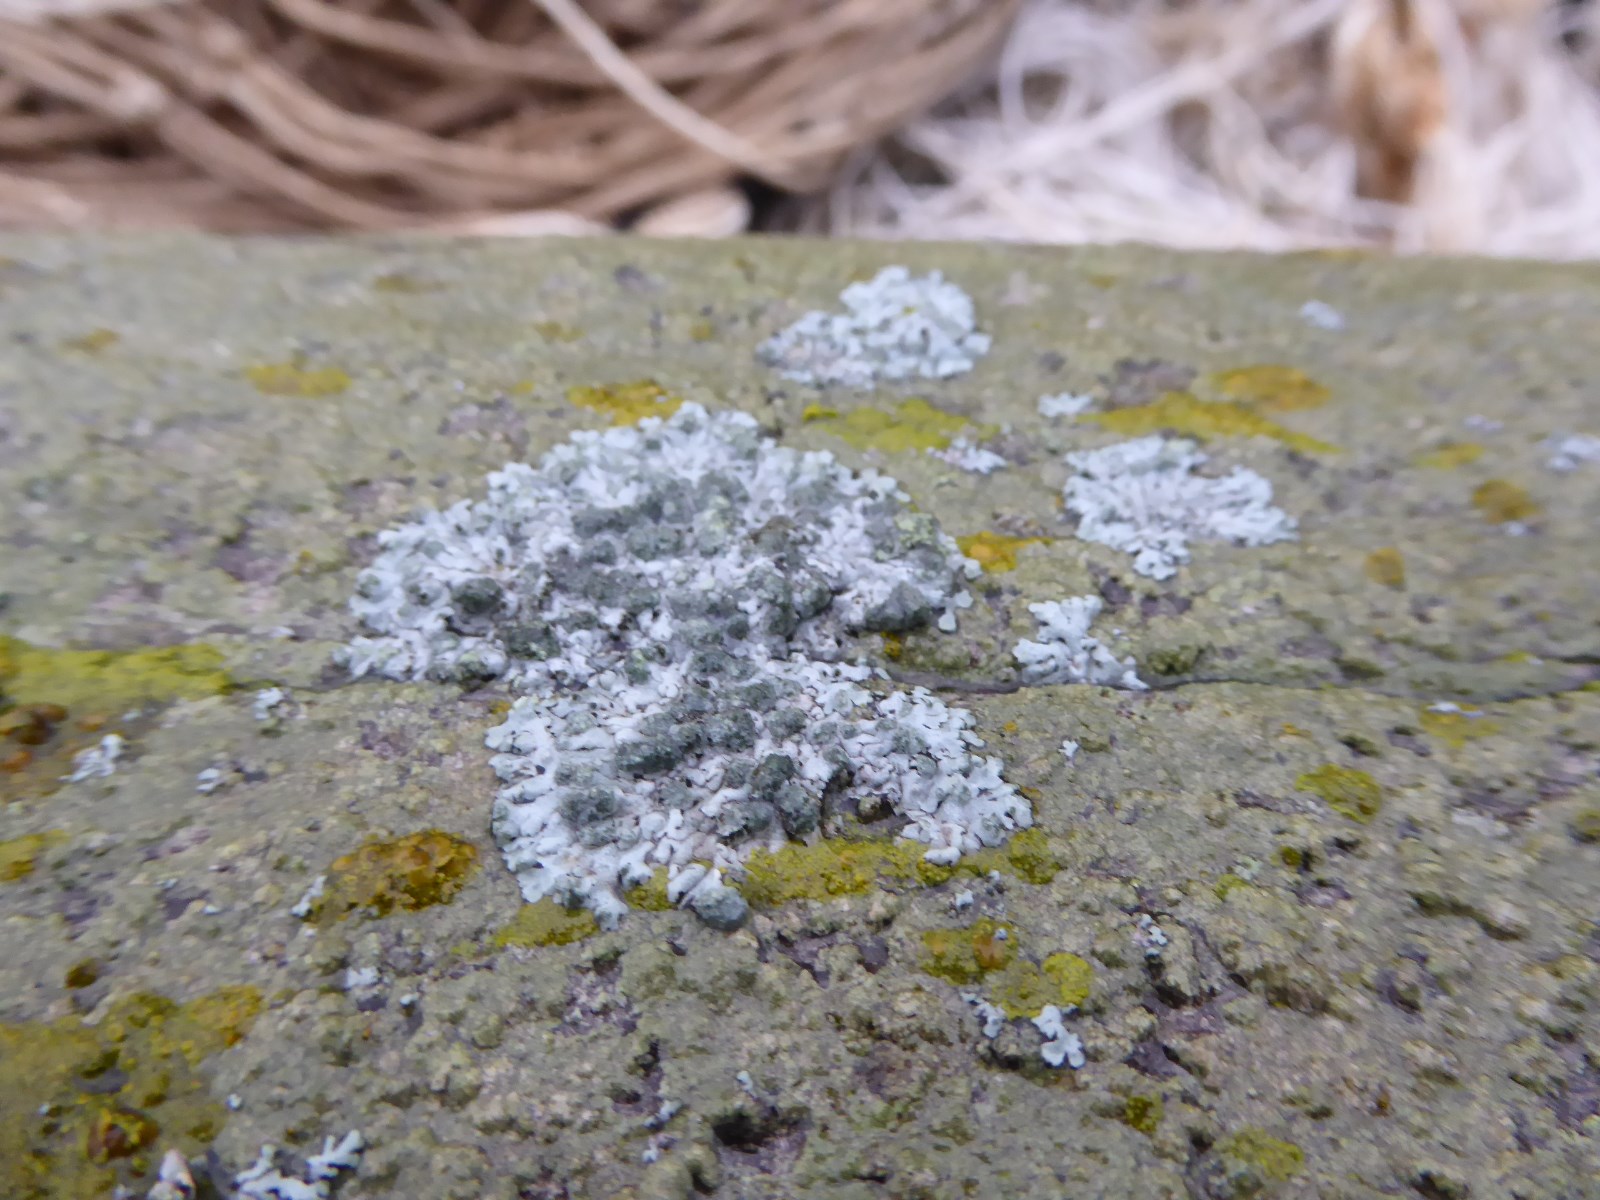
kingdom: Fungi
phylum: Ascomycota
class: Lecanoromycetes
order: Caliciales
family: Physciaceae
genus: Physcia
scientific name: Physcia caesia
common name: blågrå rosetlav
